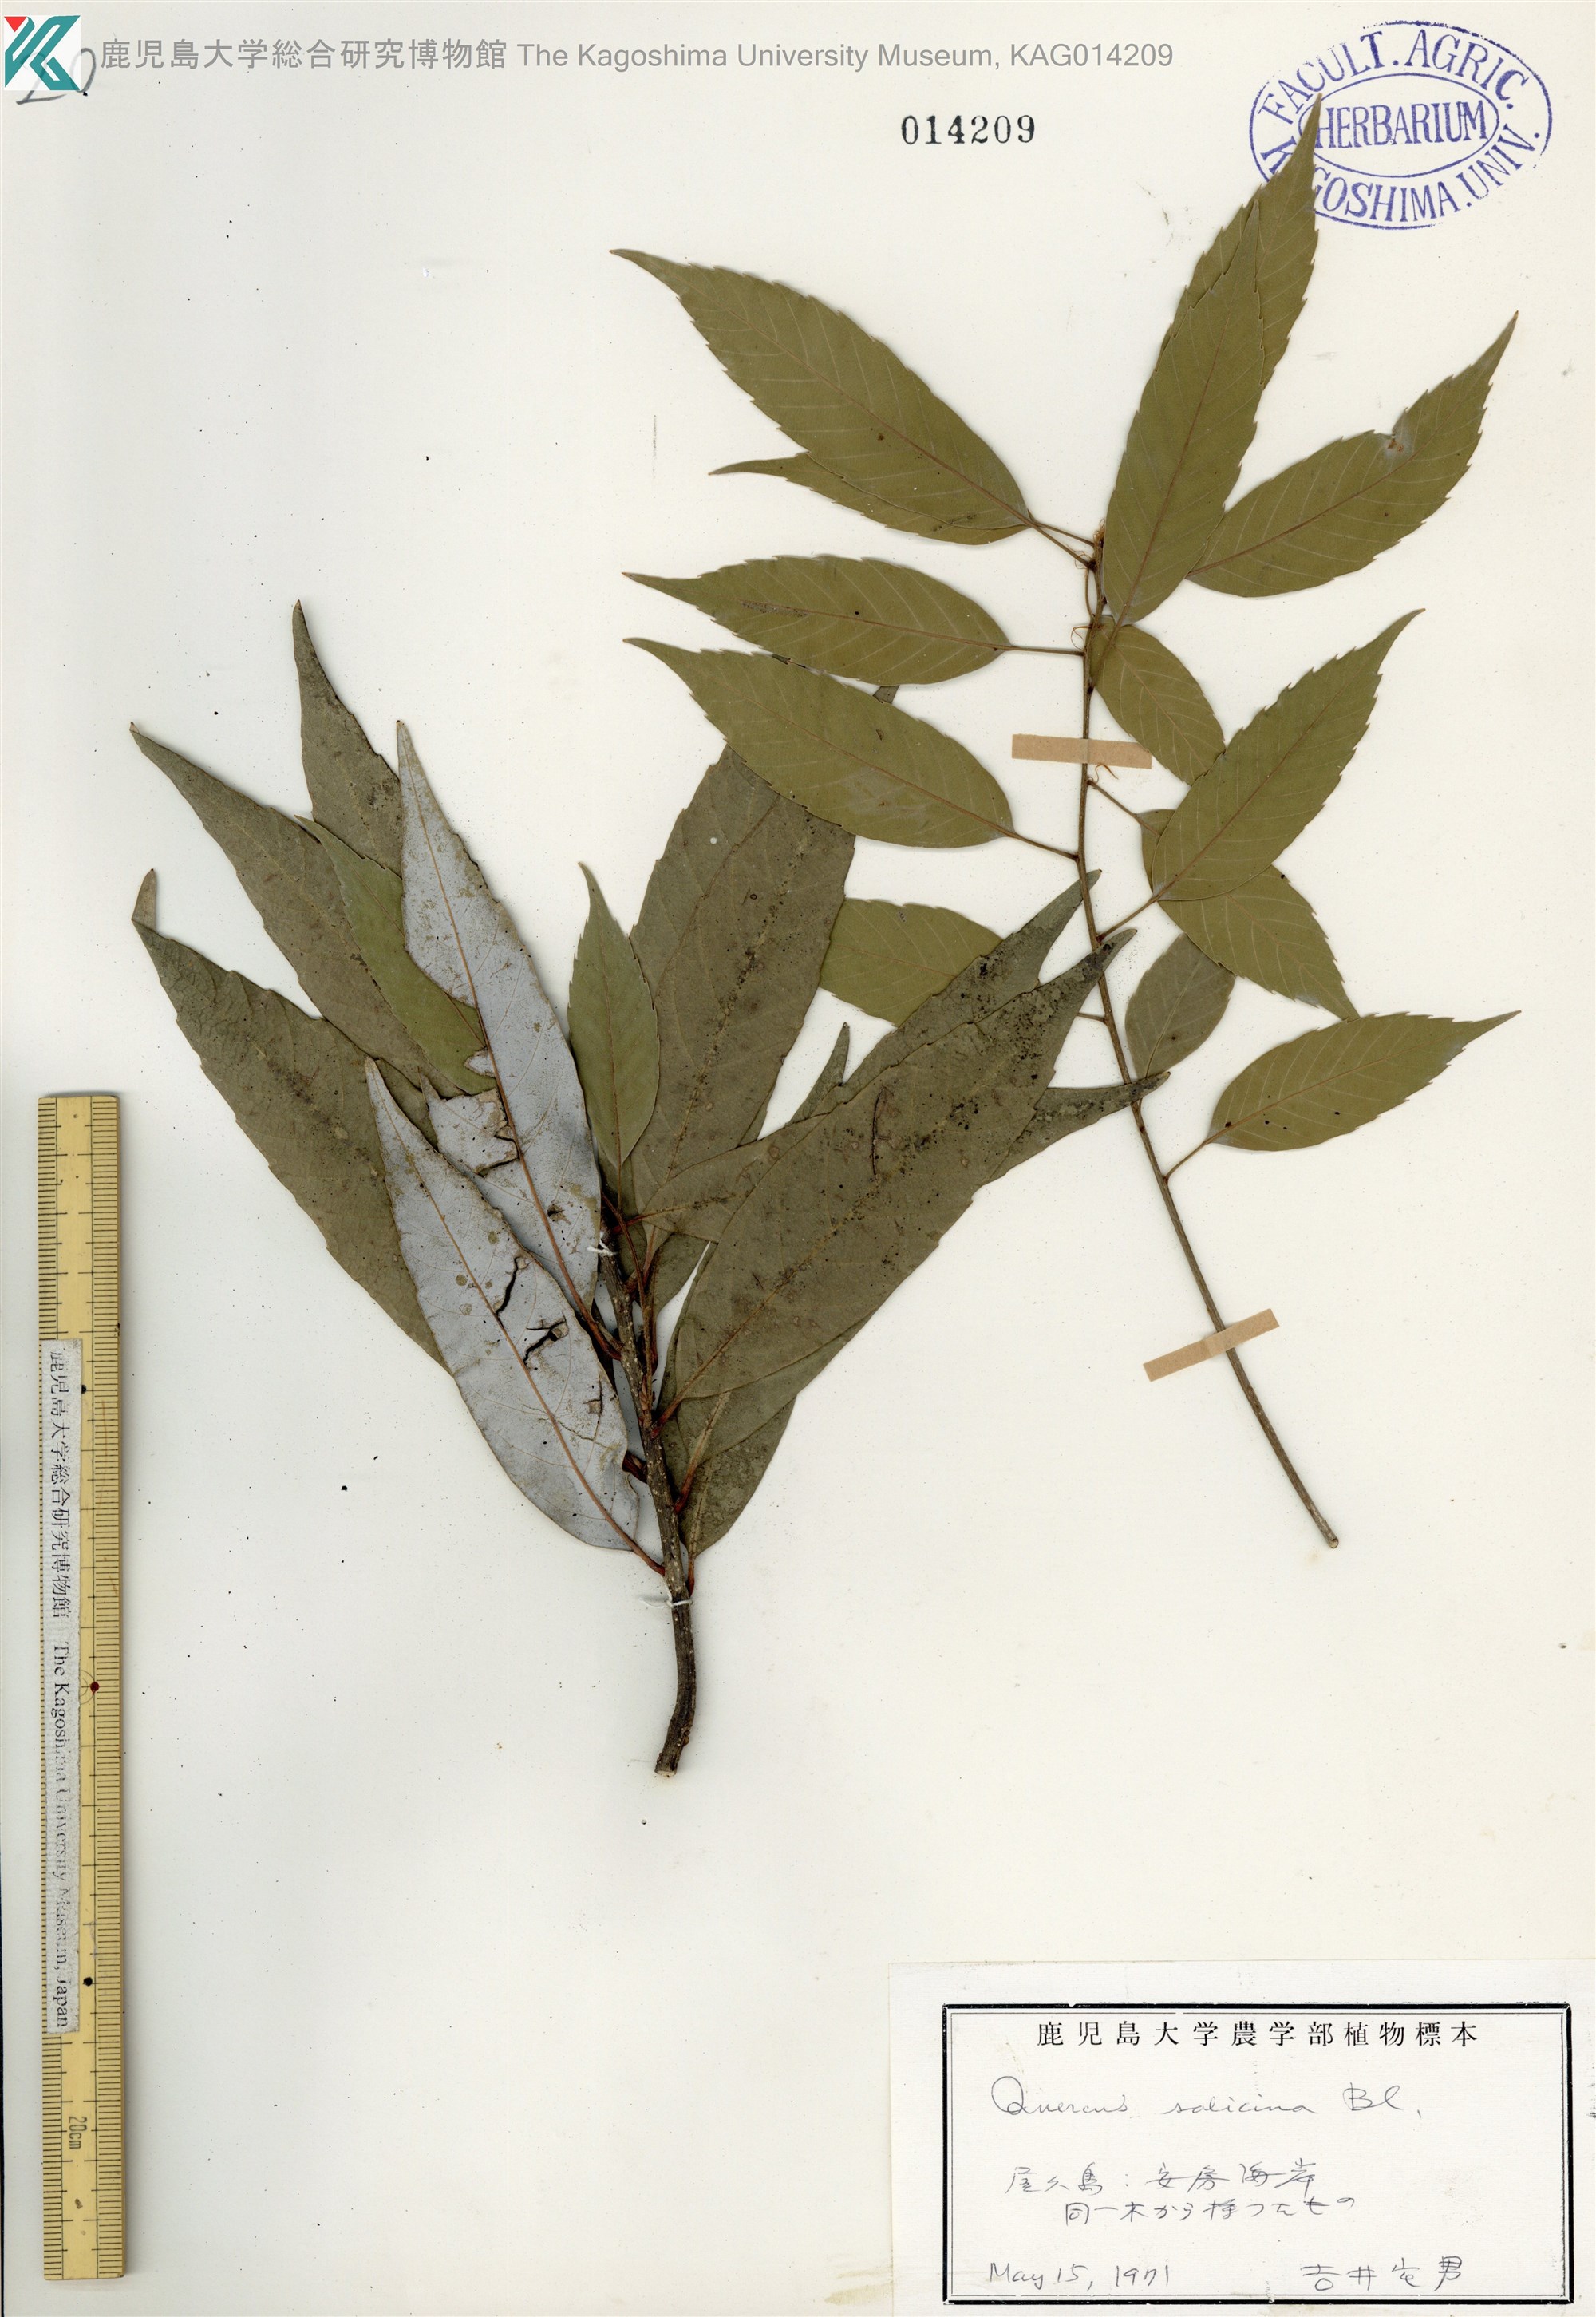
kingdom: Plantae
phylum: Tracheophyta
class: Magnoliopsida
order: Fagales
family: Fagaceae
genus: Quercus
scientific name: Quercus salicina
